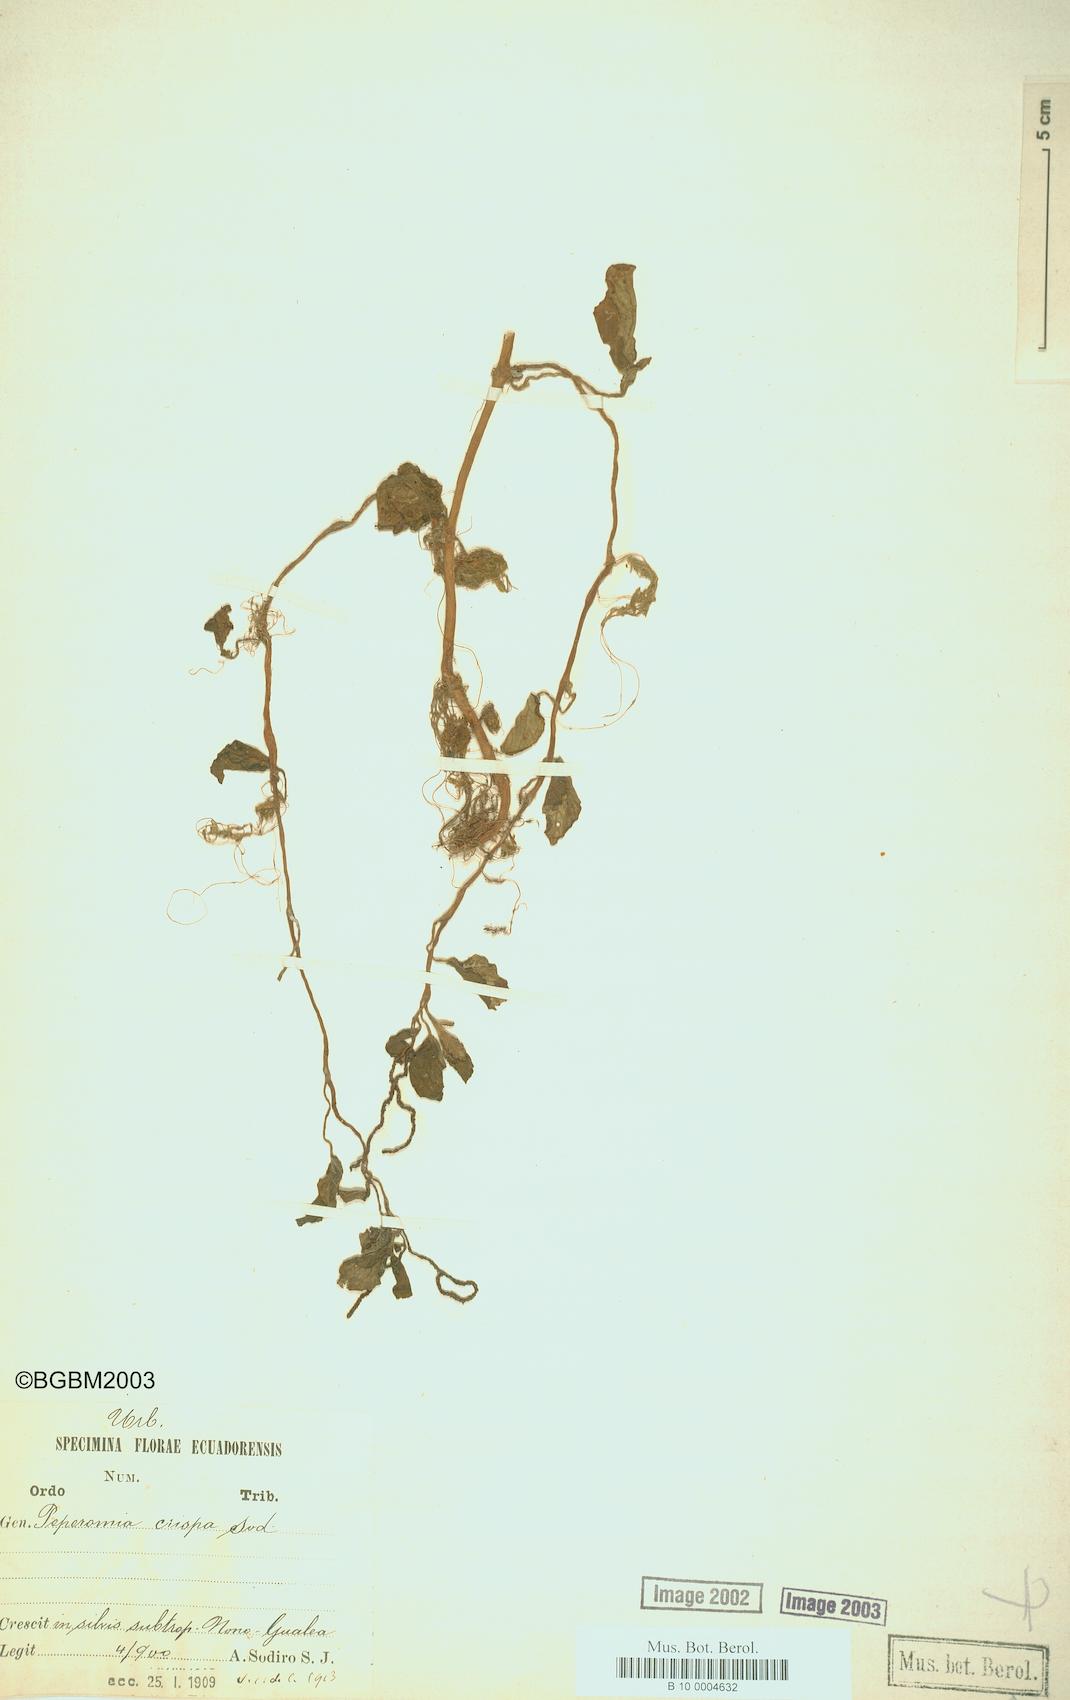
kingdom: Plantae
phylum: Tracheophyta
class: Magnoliopsida
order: Piperales
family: Piperaceae
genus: Peperomia
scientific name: Peperomia crispa
